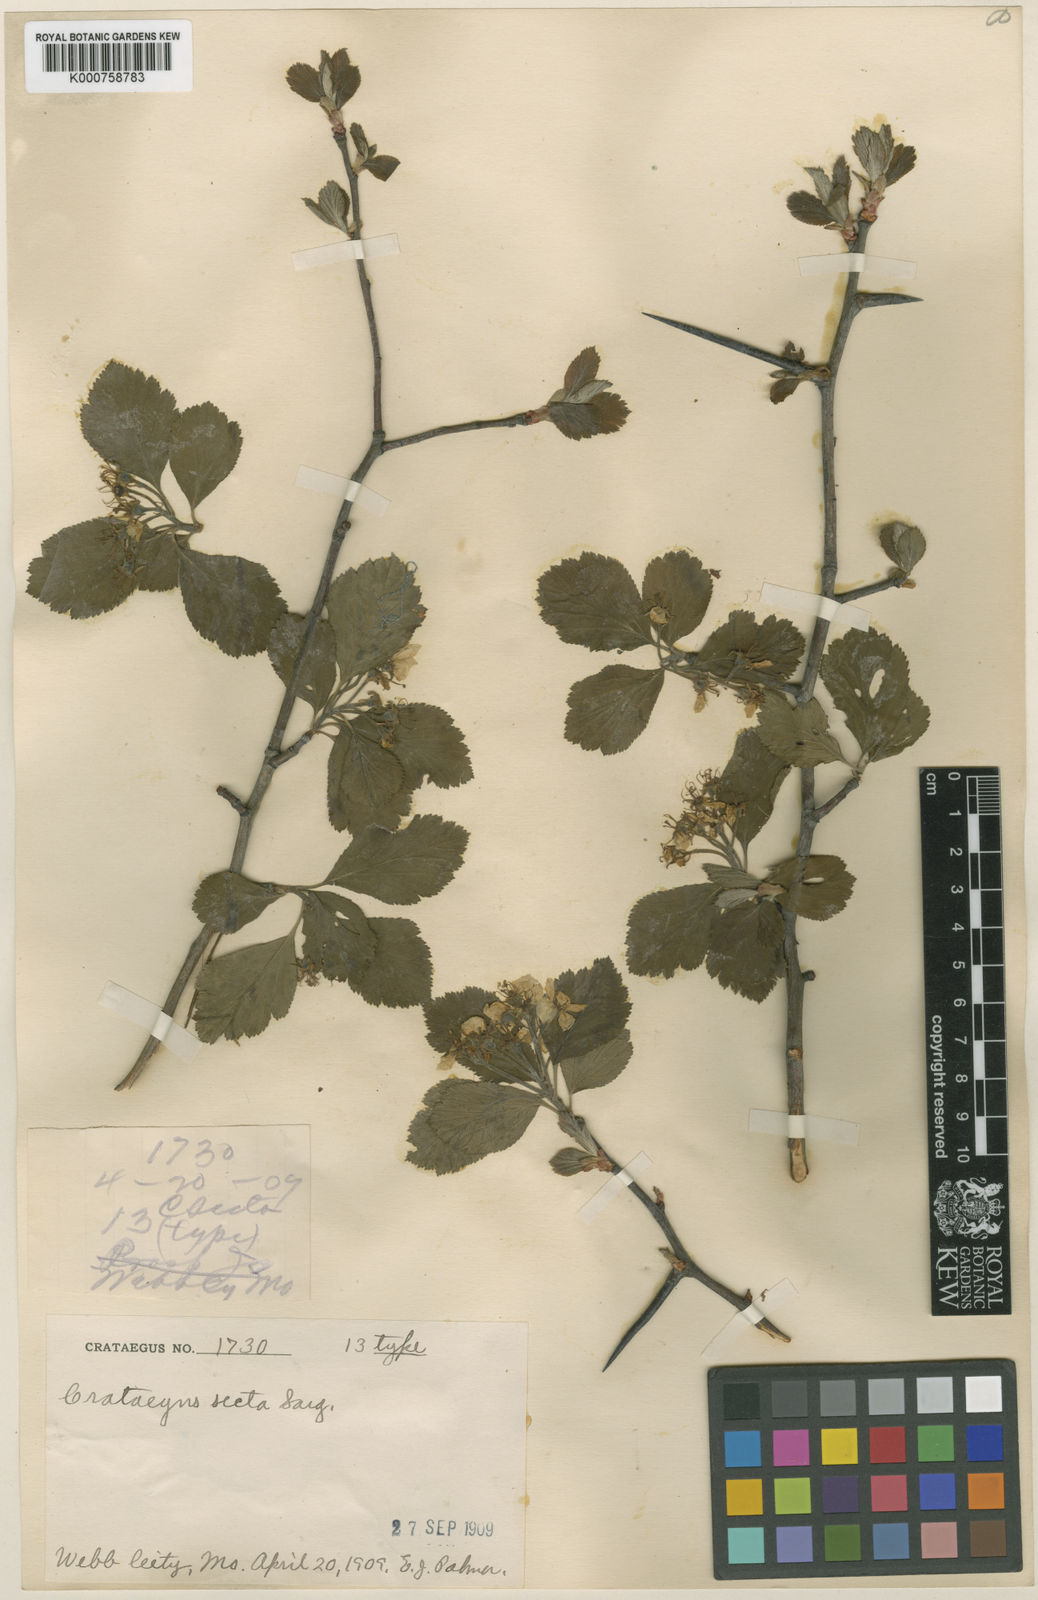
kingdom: Plantae
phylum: Tracheophyta
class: Magnoliopsida
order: Rosales
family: Rosaceae
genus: Crataegus
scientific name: Crataegus punctata
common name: Dotted hawthorn
